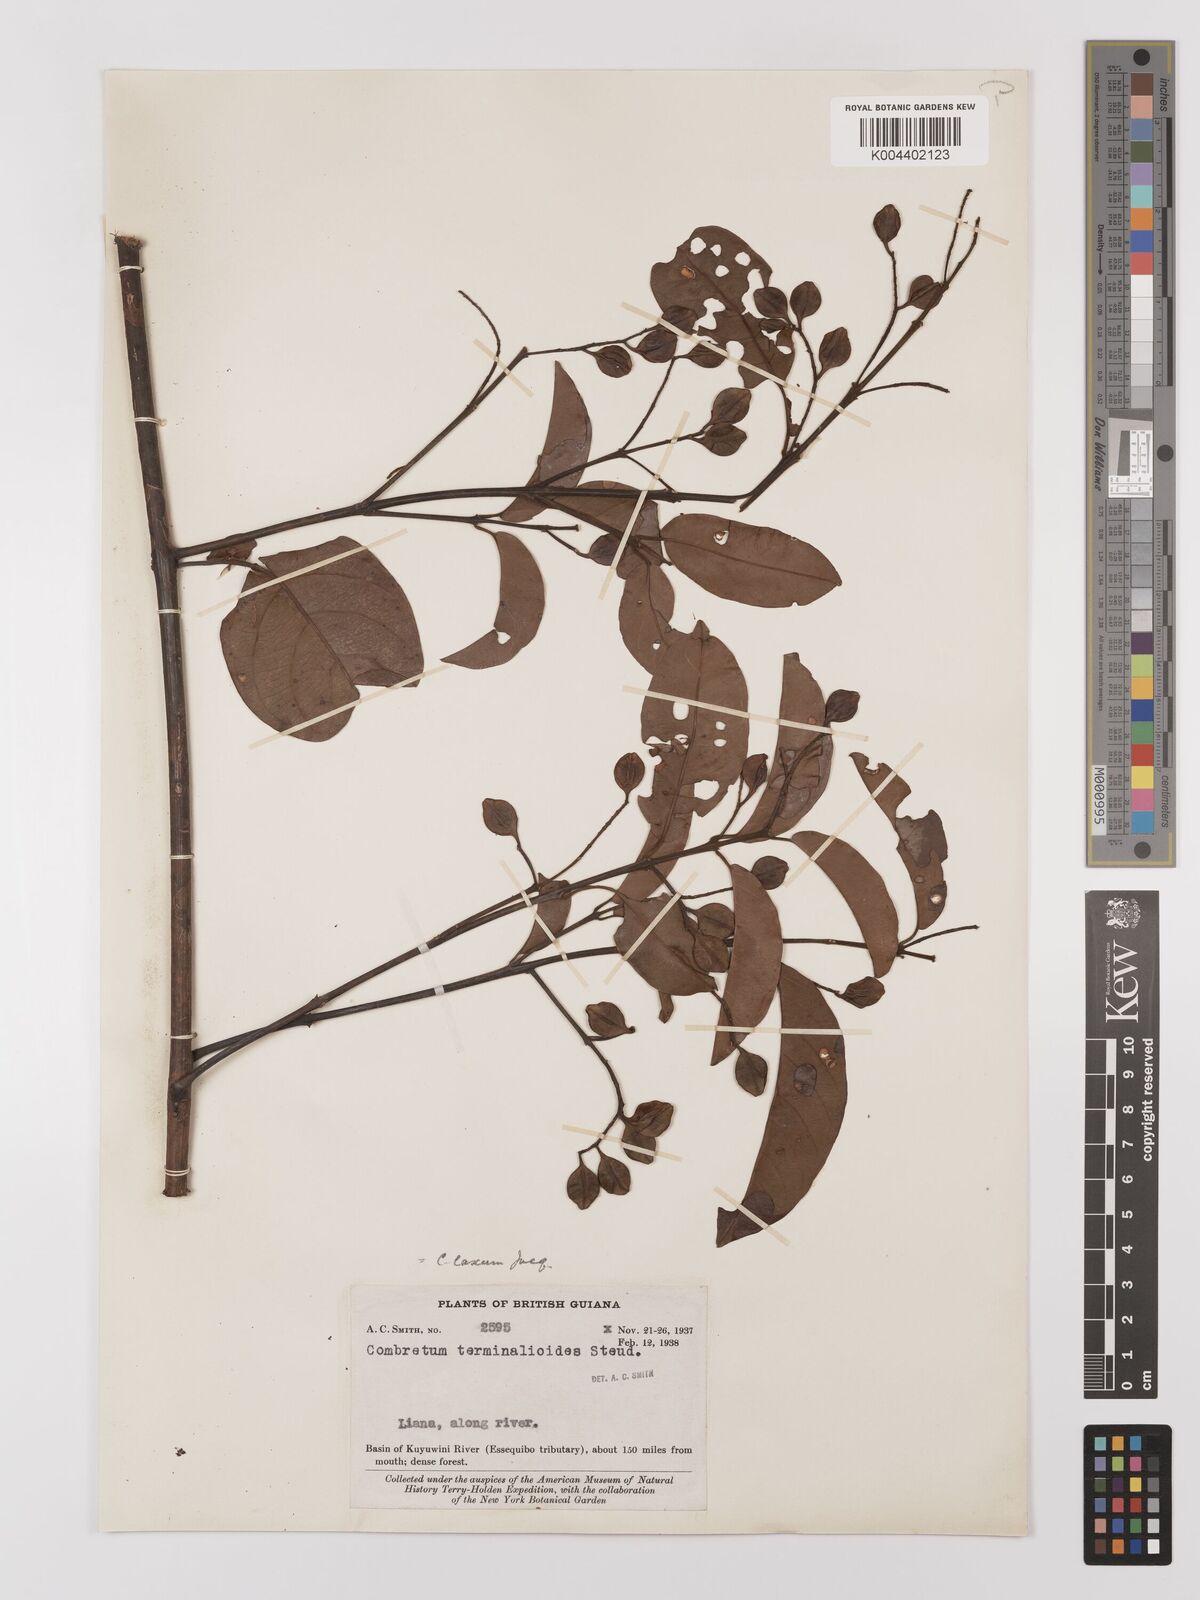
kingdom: Plantae
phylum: Tracheophyta
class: Magnoliopsida
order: Myrtales
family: Combretaceae
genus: Combretum
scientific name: Combretum
